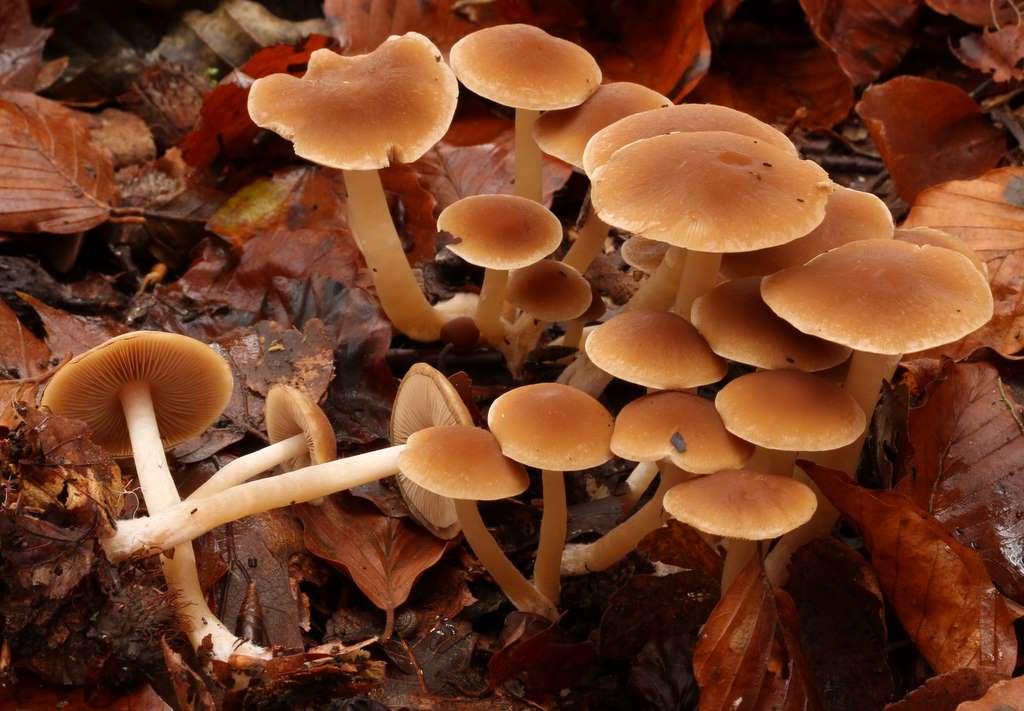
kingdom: Fungi
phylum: Basidiomycota
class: Agaricomycetes
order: Agaricales
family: Psathyrellaceae
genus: Psathyrella
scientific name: Psathyrella piluliformis
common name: lysstokket mørkhat
